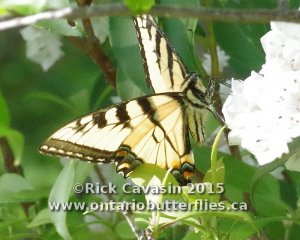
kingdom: Animalia
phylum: Arthropoda
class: Insecta
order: Lepidoptera
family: Papilionidae
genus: Pterourus
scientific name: Pterourus glaucus
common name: Eastern Tiger Swallowtail
